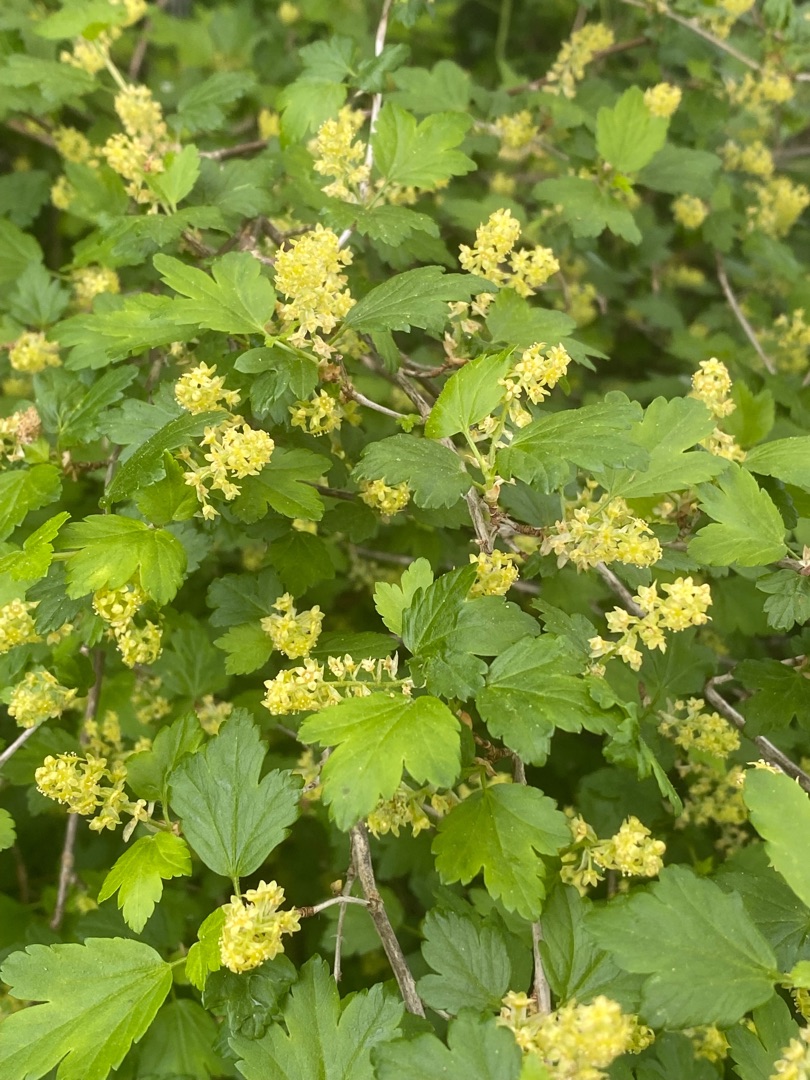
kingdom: Plantae
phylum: Tracheophyta
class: Magnoliopsida
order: Saxifragales
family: Grossulariaceae
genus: Ribes
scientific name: Ribes alpinum
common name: Fjeld-ribs
